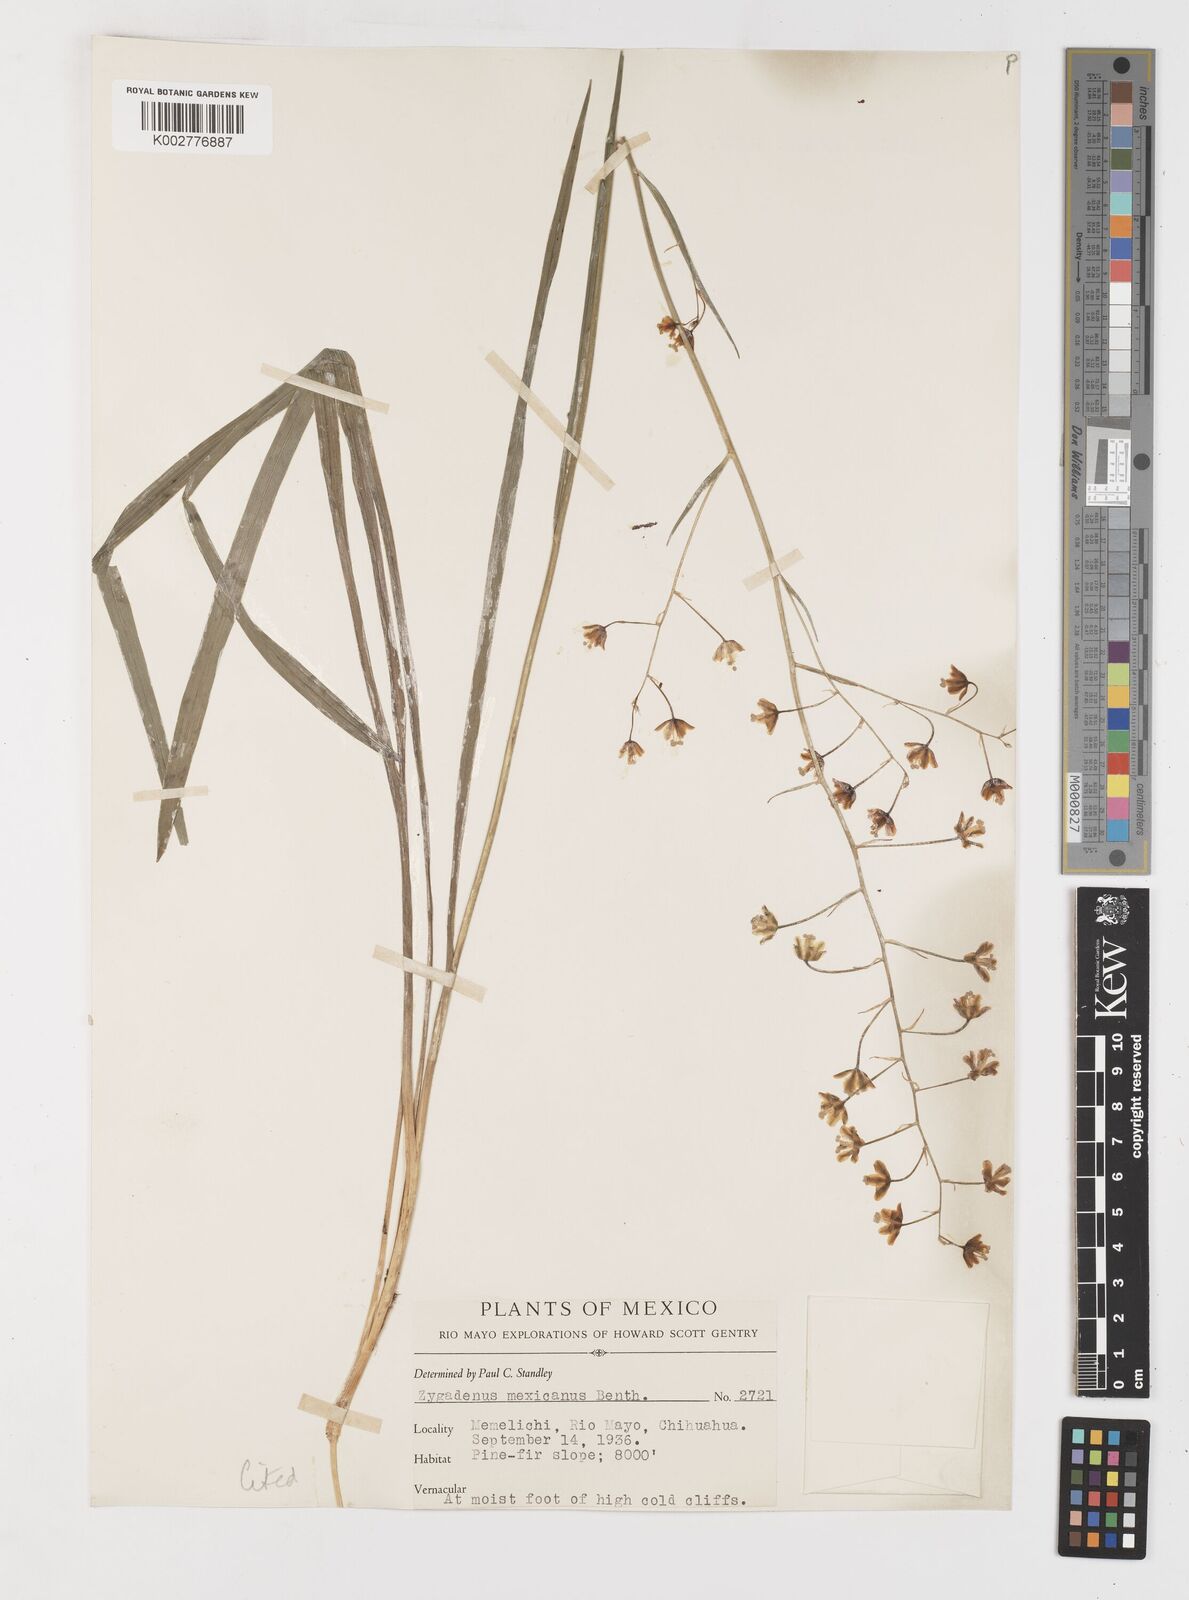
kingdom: Plantae
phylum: Tracheophyta
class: Liliopsida
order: Liliales
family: Melanthiaceae
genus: Anticlea
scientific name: Anticlea virescens
